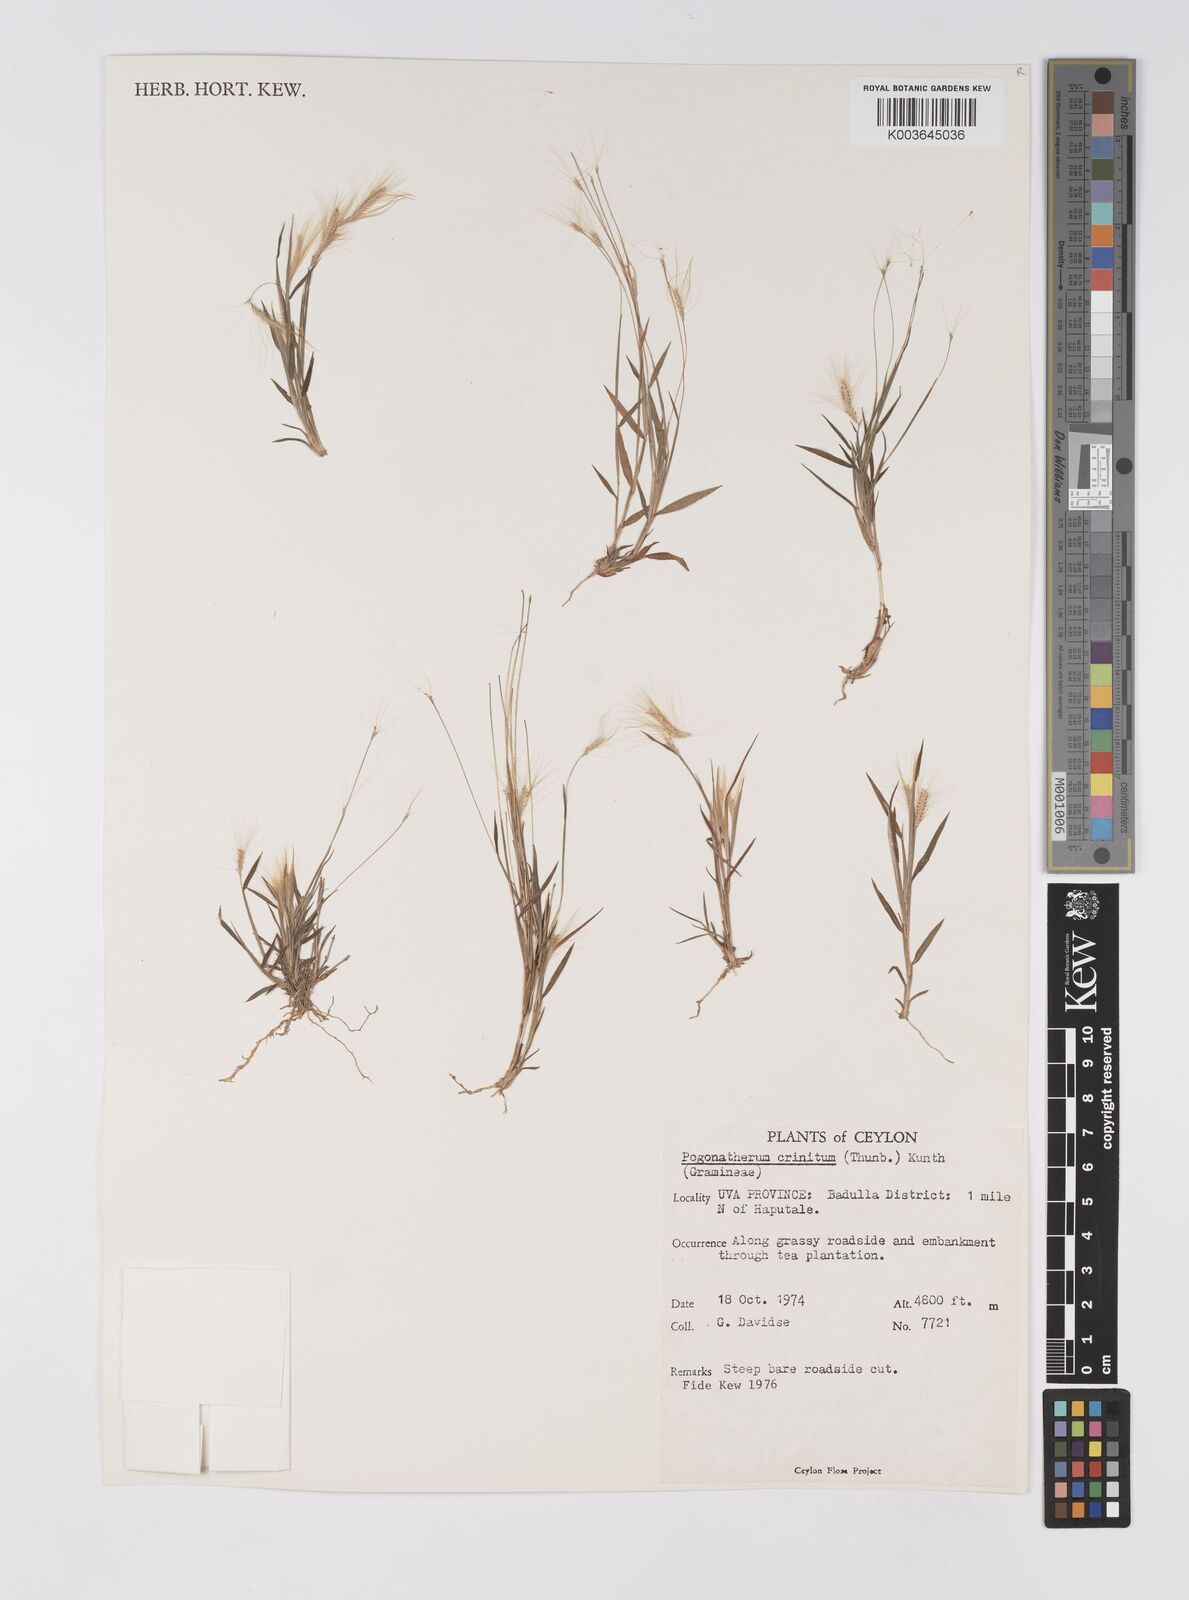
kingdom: Plantae
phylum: Tracheophyta
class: Liliopsida
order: Poales
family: Poaceae
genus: Pogonatherum
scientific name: Pogonatherum crinitum
